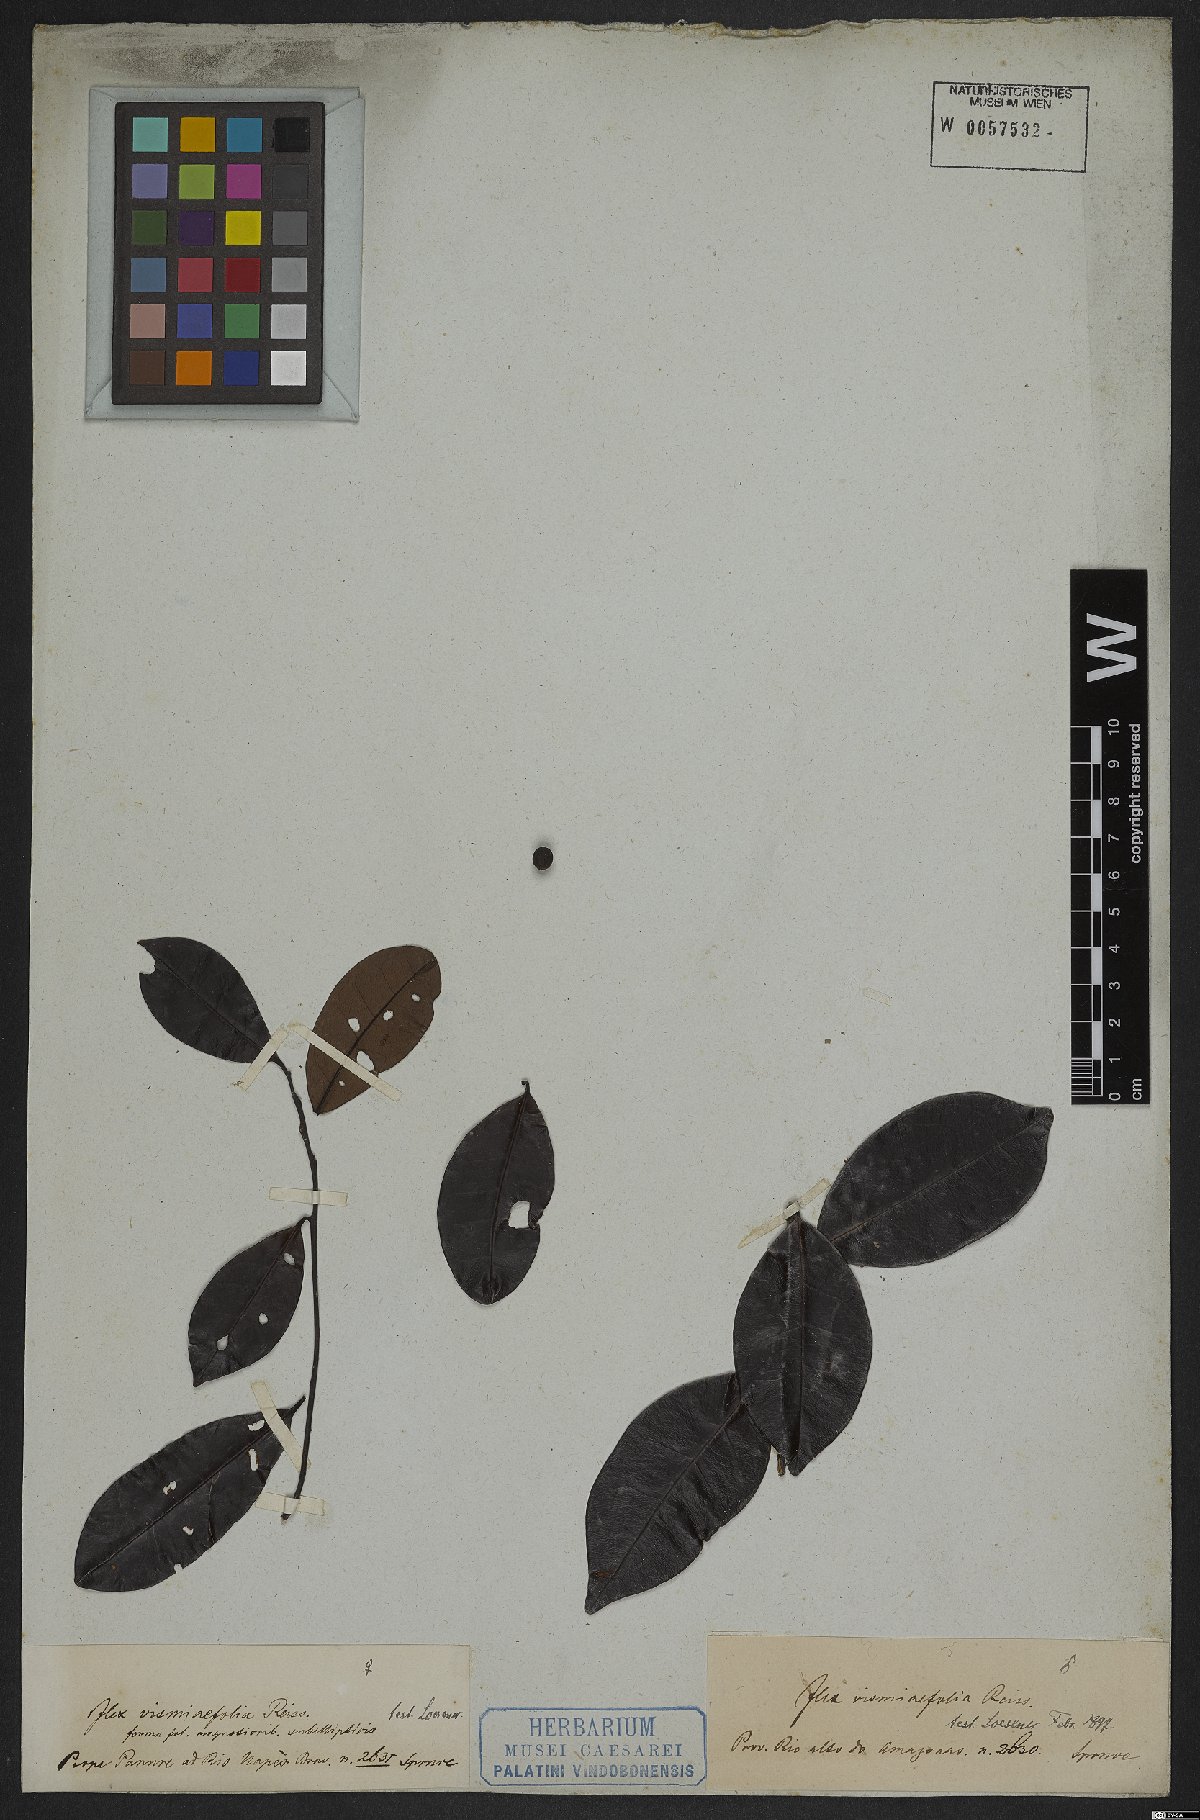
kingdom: Plantae
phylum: Tracheophyta
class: Magnoliopsida
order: Aquifoliales
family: Aquifoliaceae
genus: Ilex
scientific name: Ilex vismiifolia
